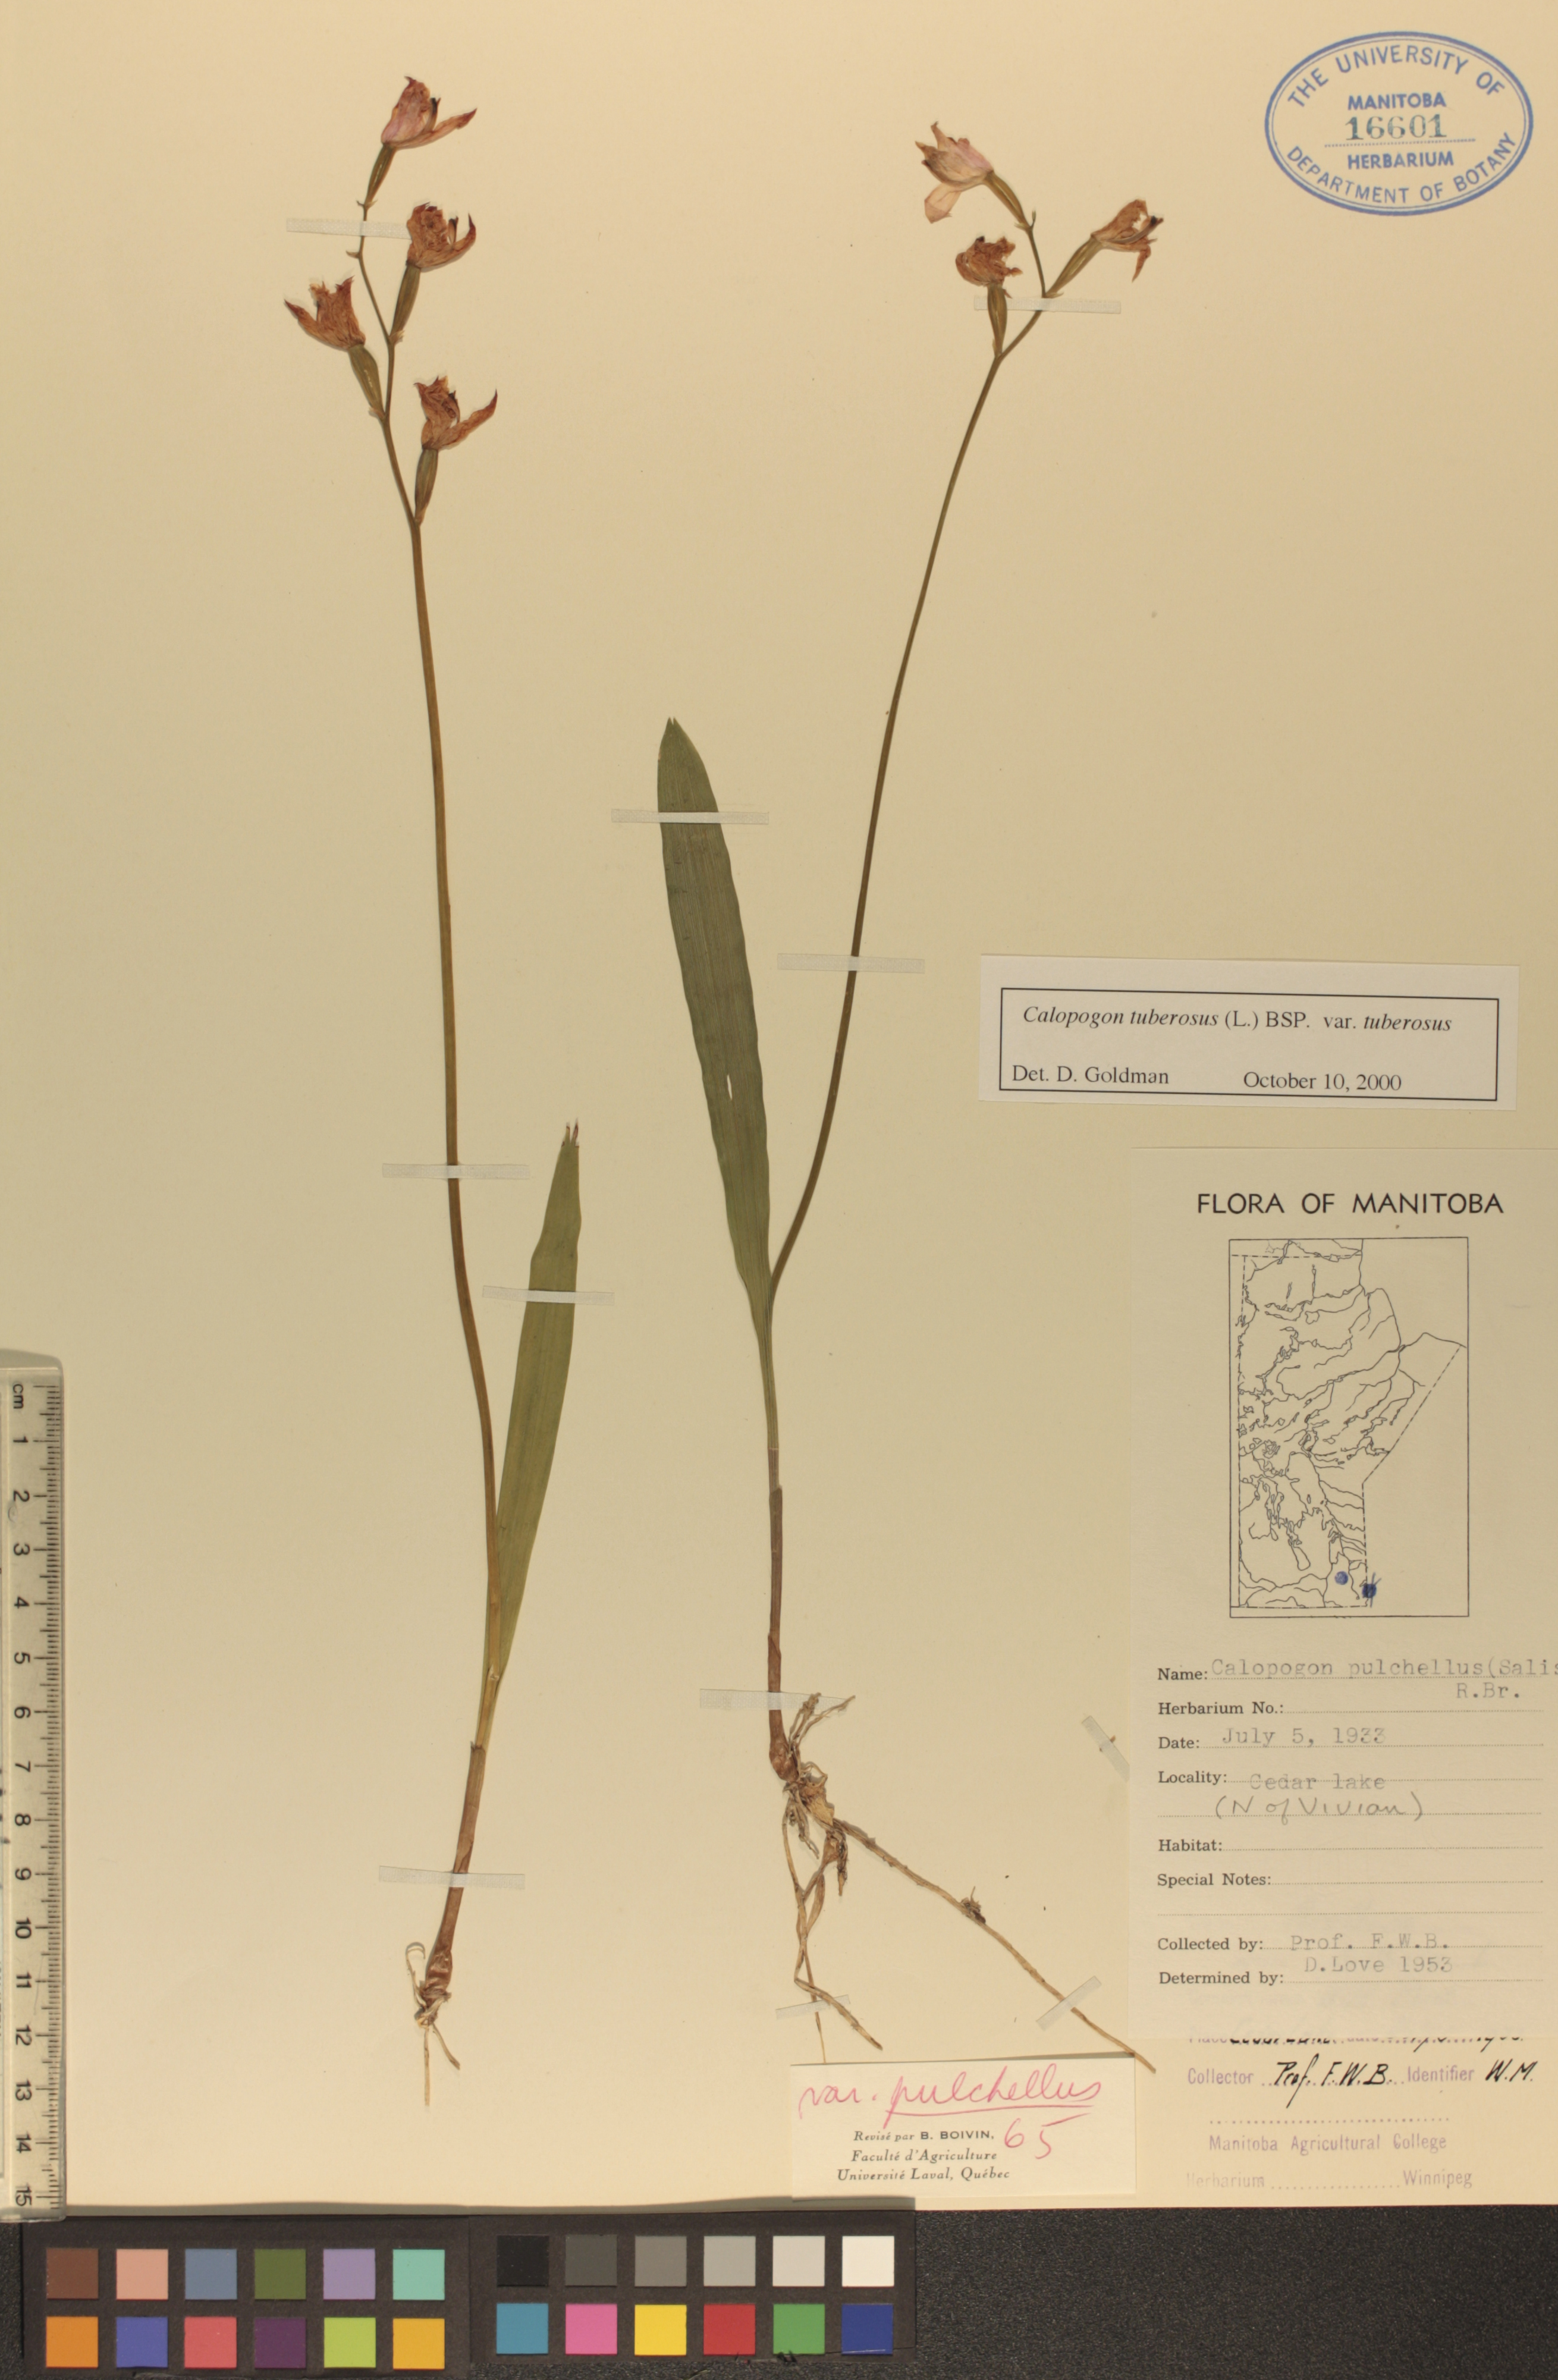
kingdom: Plantae
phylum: Tracheophyta
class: Liliopsida
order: Asparagales
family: Orchidaceae
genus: Calopogon
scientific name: Calopogon tuberosus
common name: Grass-pink
